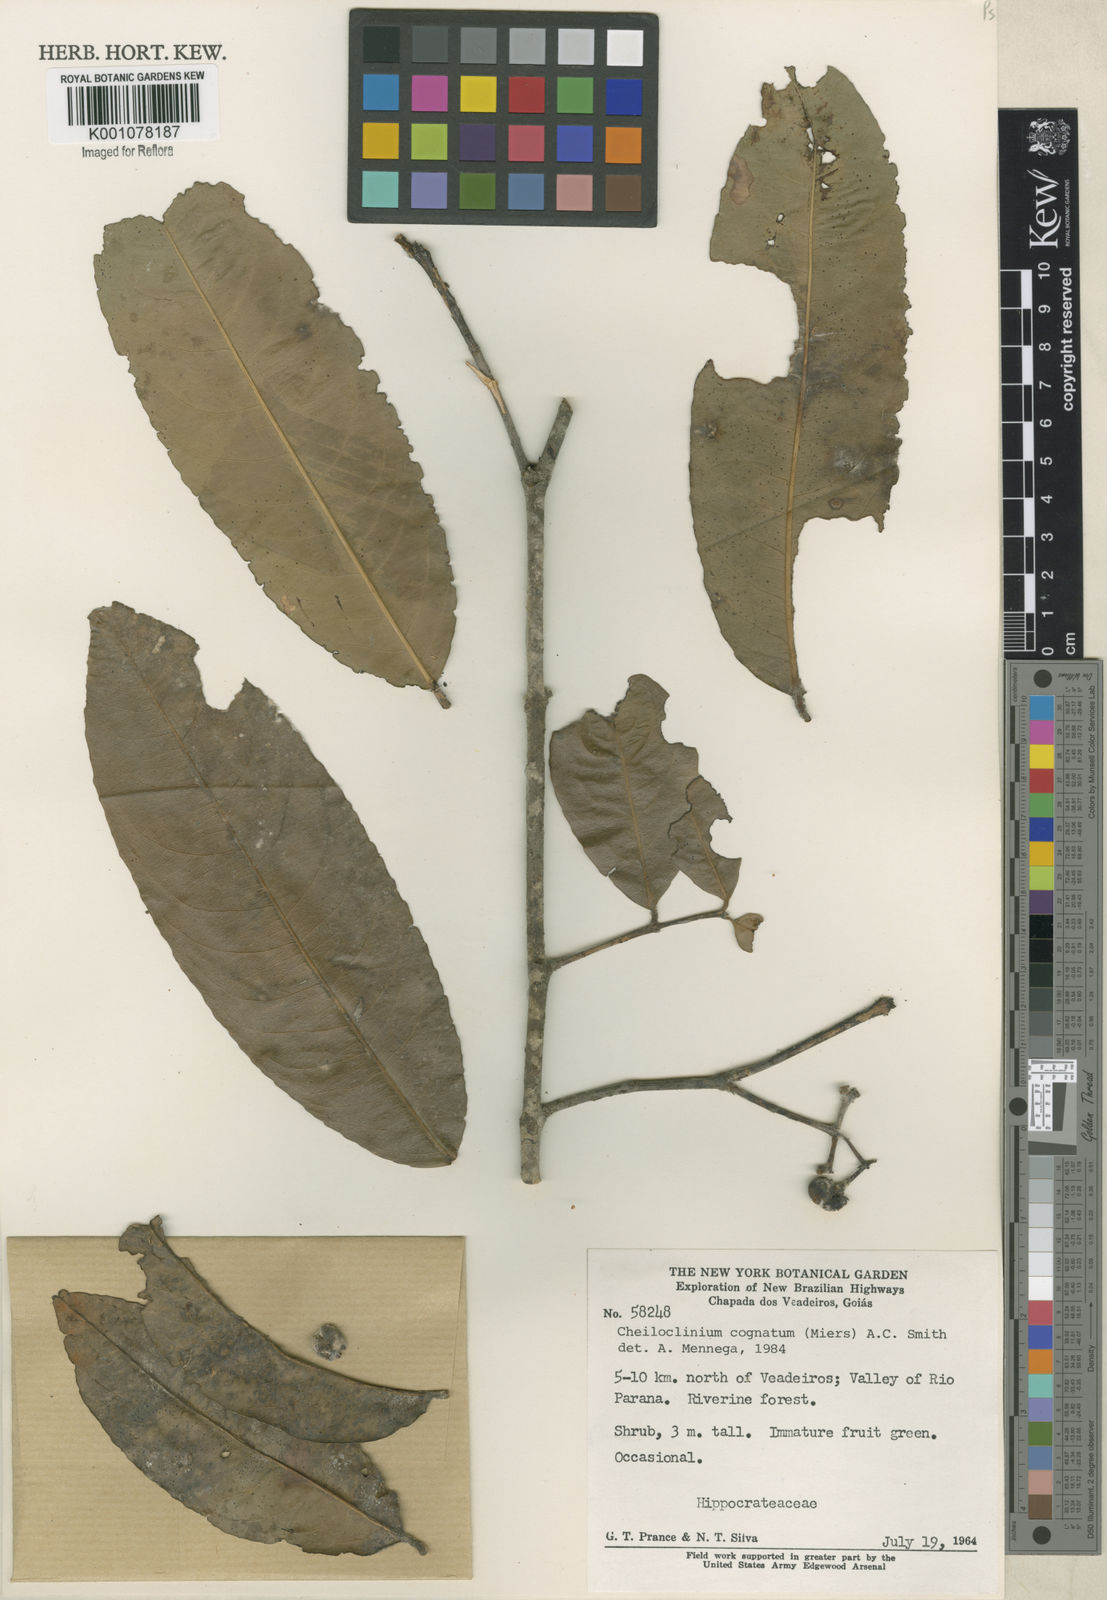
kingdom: Plantae
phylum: Tracheophyta
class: Magnoliopsida
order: Celastrales
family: Celastraceae
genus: Cheiloclinium
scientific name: Cheiloclinium cognatum
